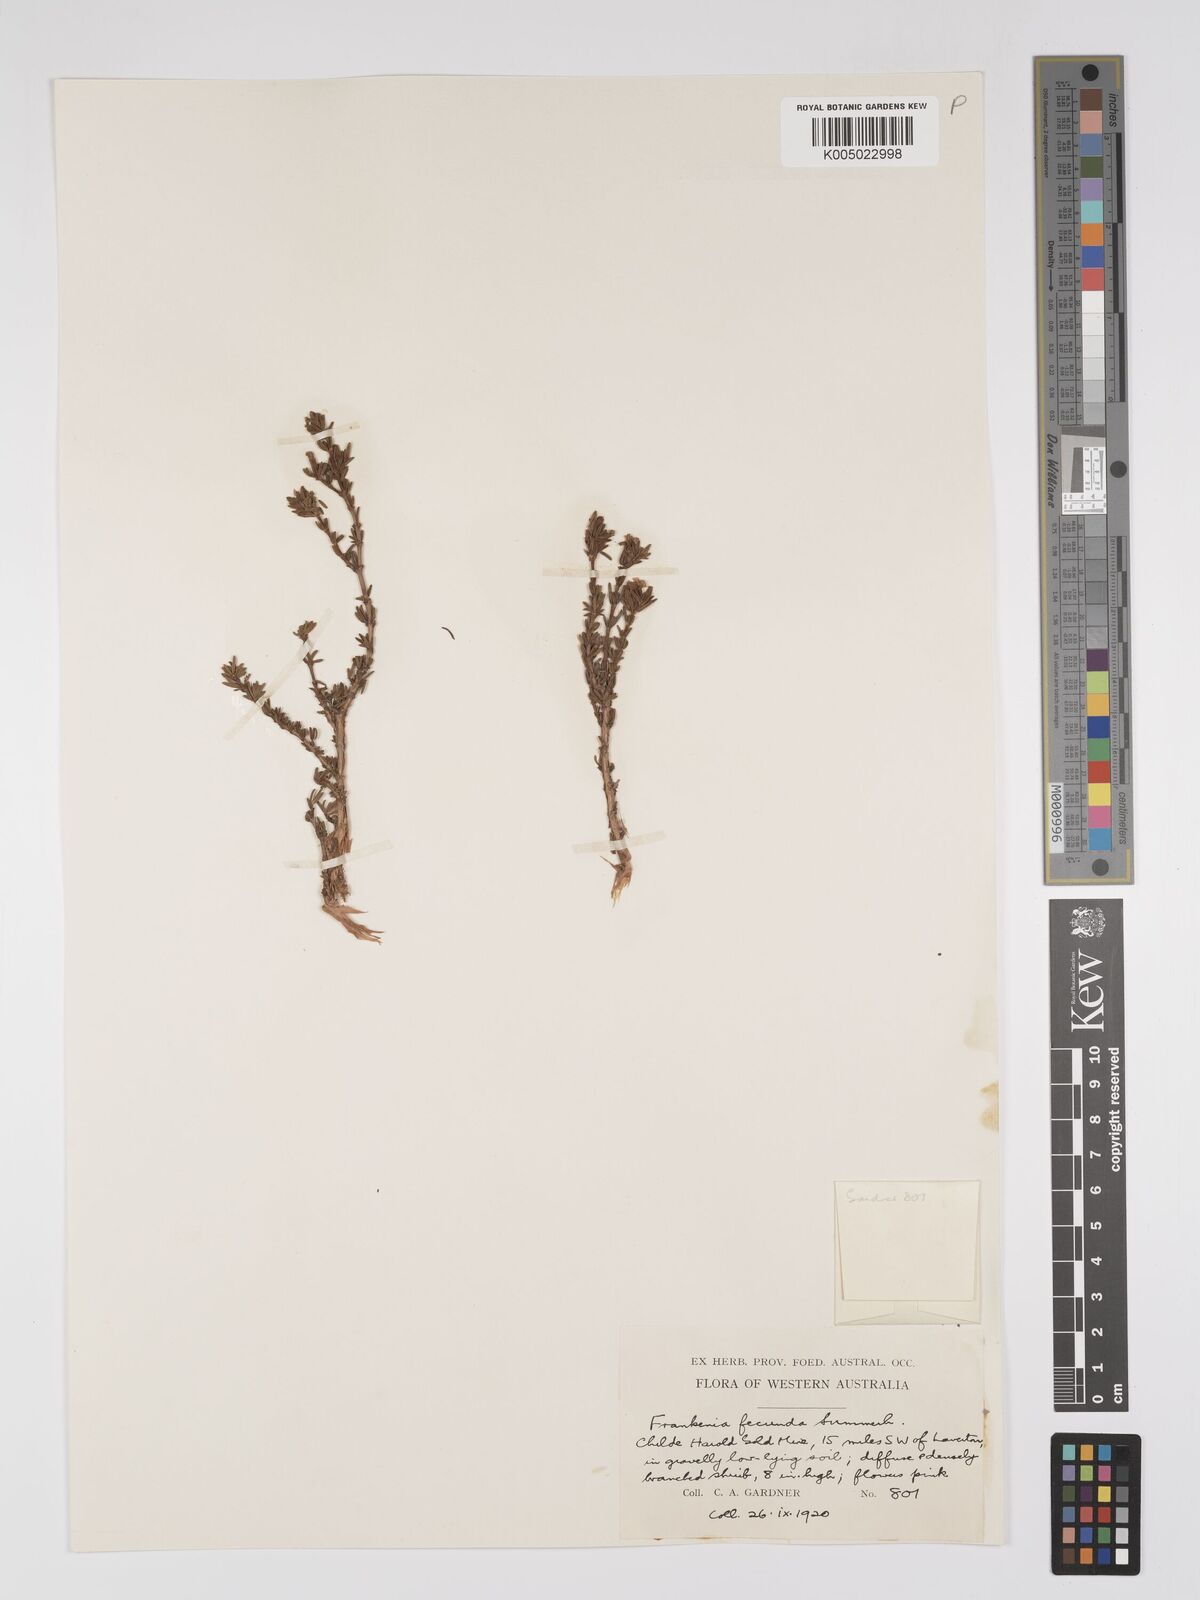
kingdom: Plantae
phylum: Tracheophyta
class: Magnoliopsida
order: Caryophyllales
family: Frankeniaceae
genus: Frankenia
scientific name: Frankenia fecunda
